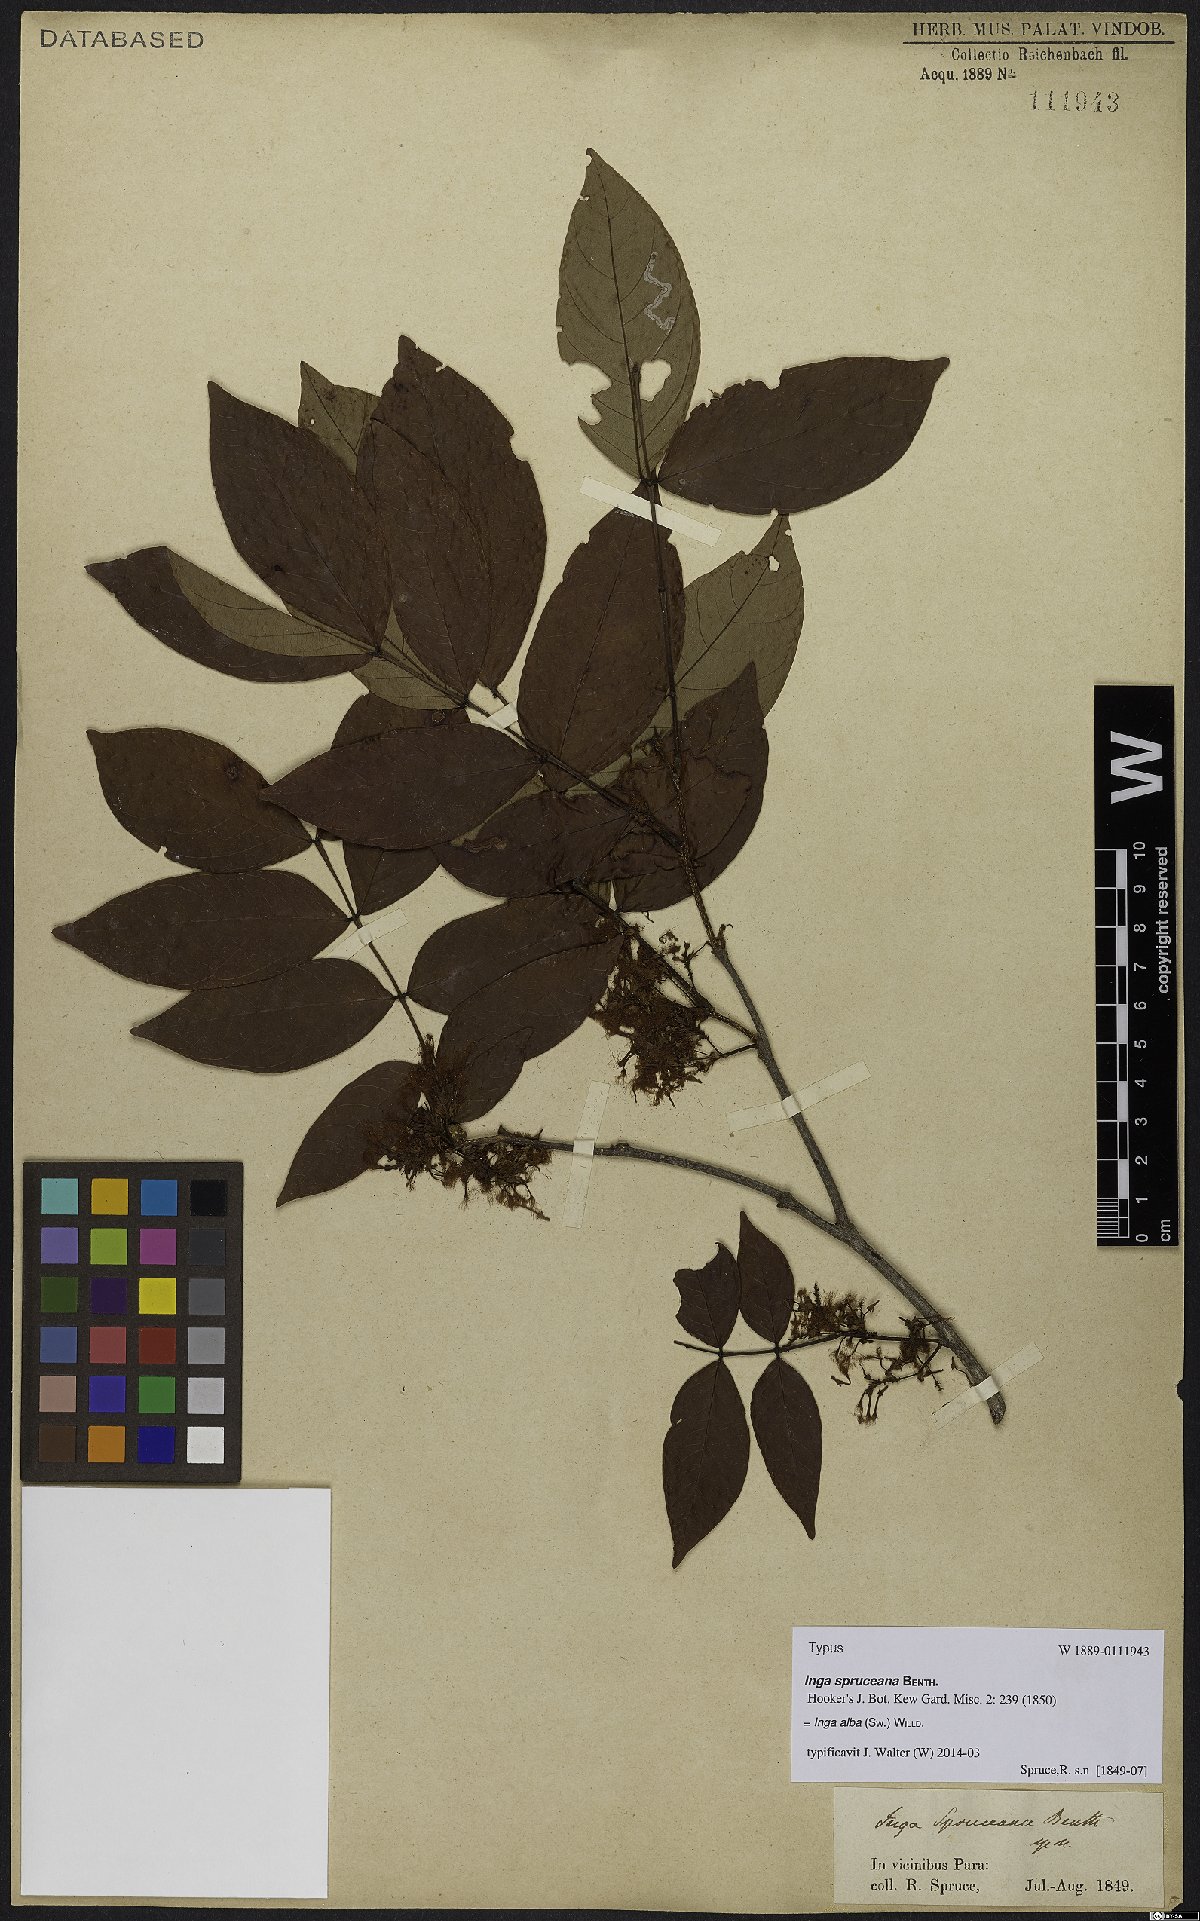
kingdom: Plantae
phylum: Tracheophyta
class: Magnoliopsida
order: Fabales
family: Fabaceae
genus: Inga
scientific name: Inga alba
